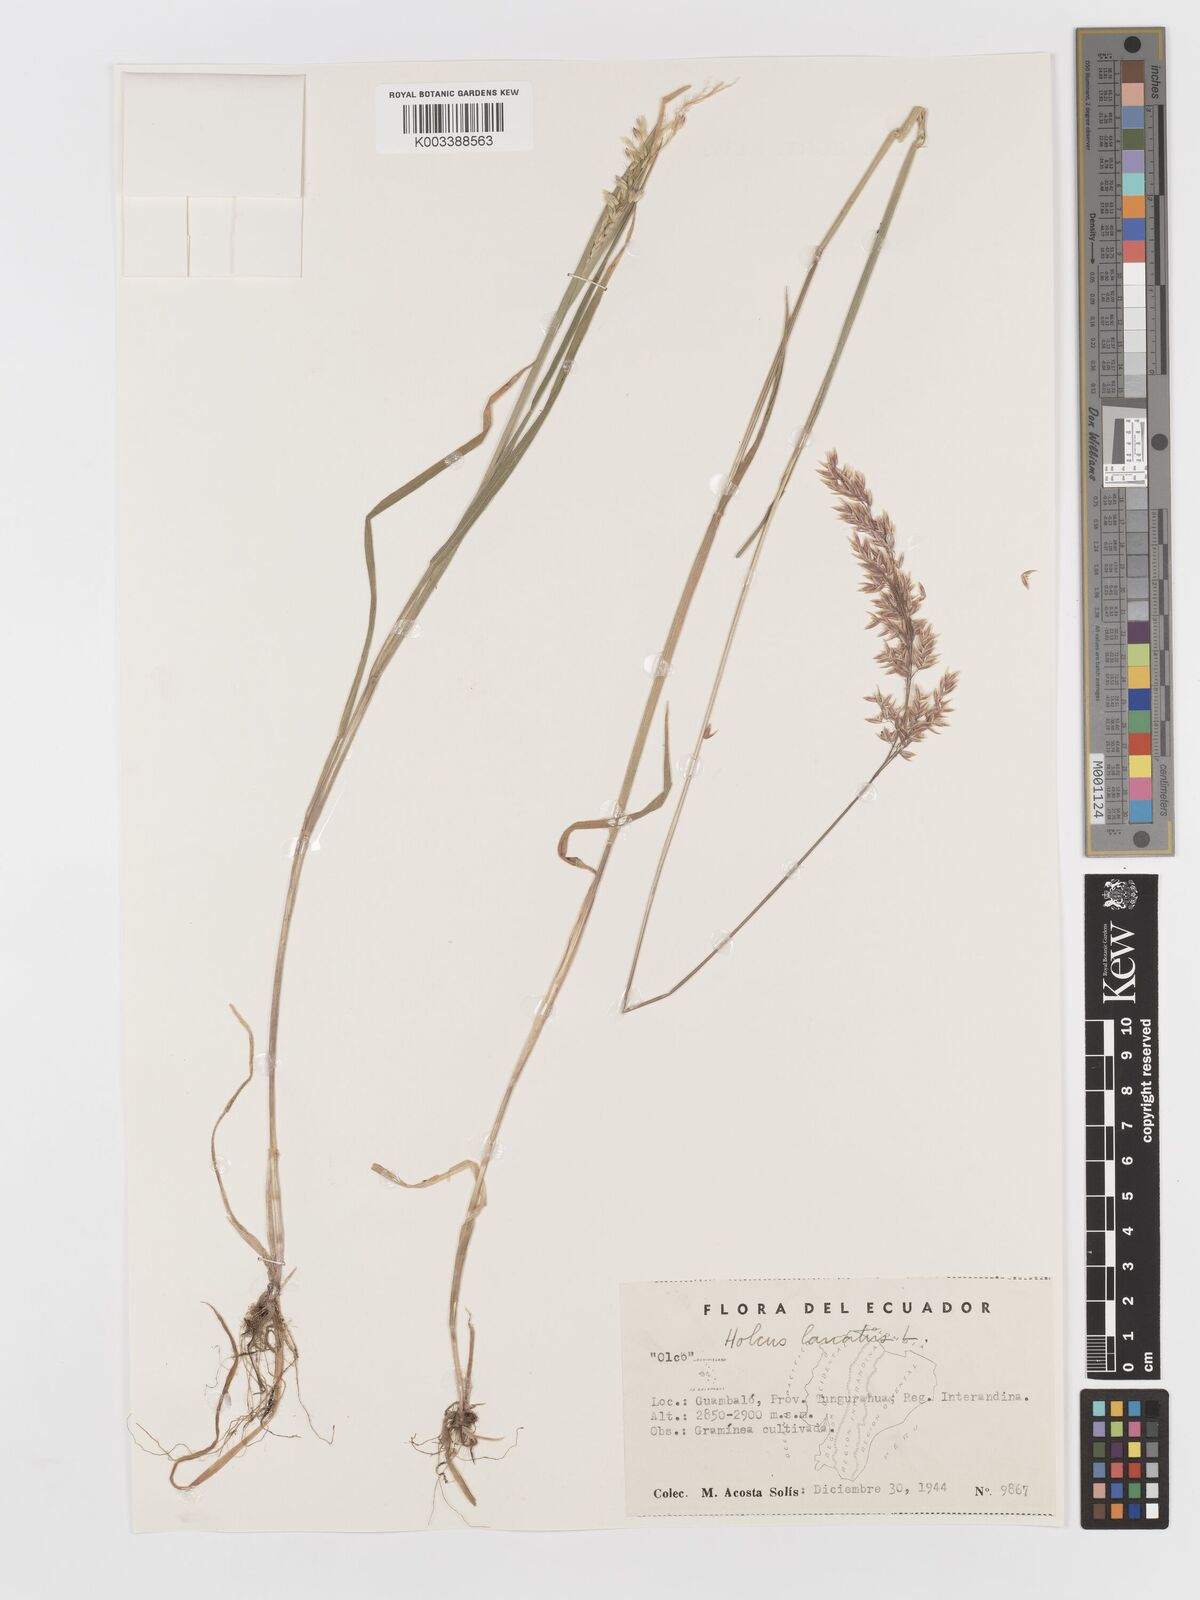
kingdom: Plantae
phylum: Tracheophyta
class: Liliopsida
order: Poales
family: Poaceae
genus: Holcus
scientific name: Holcus lanatus
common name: Yorkshire-fog
